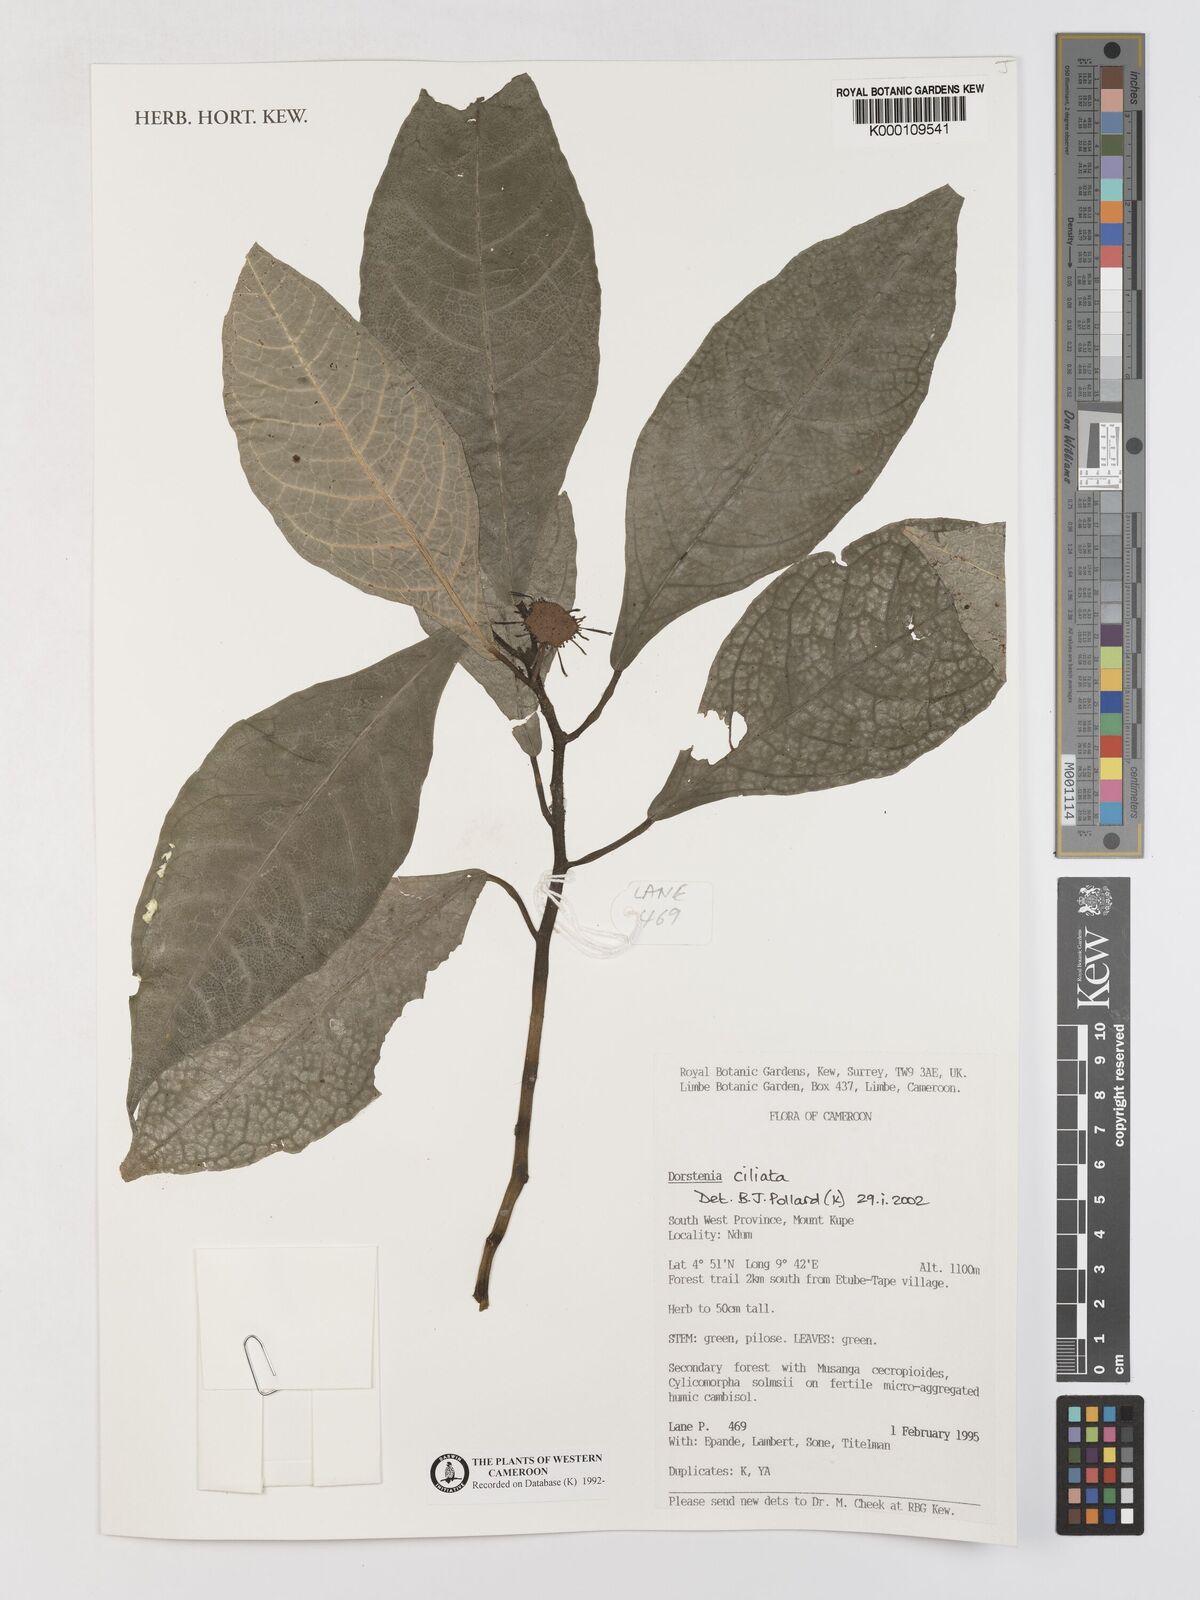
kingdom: Plantae
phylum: Tracheophyta
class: Magnoliopsida
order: Rosales
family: Moraceae
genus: Dorstenia
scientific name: Dorstenia ciliata
